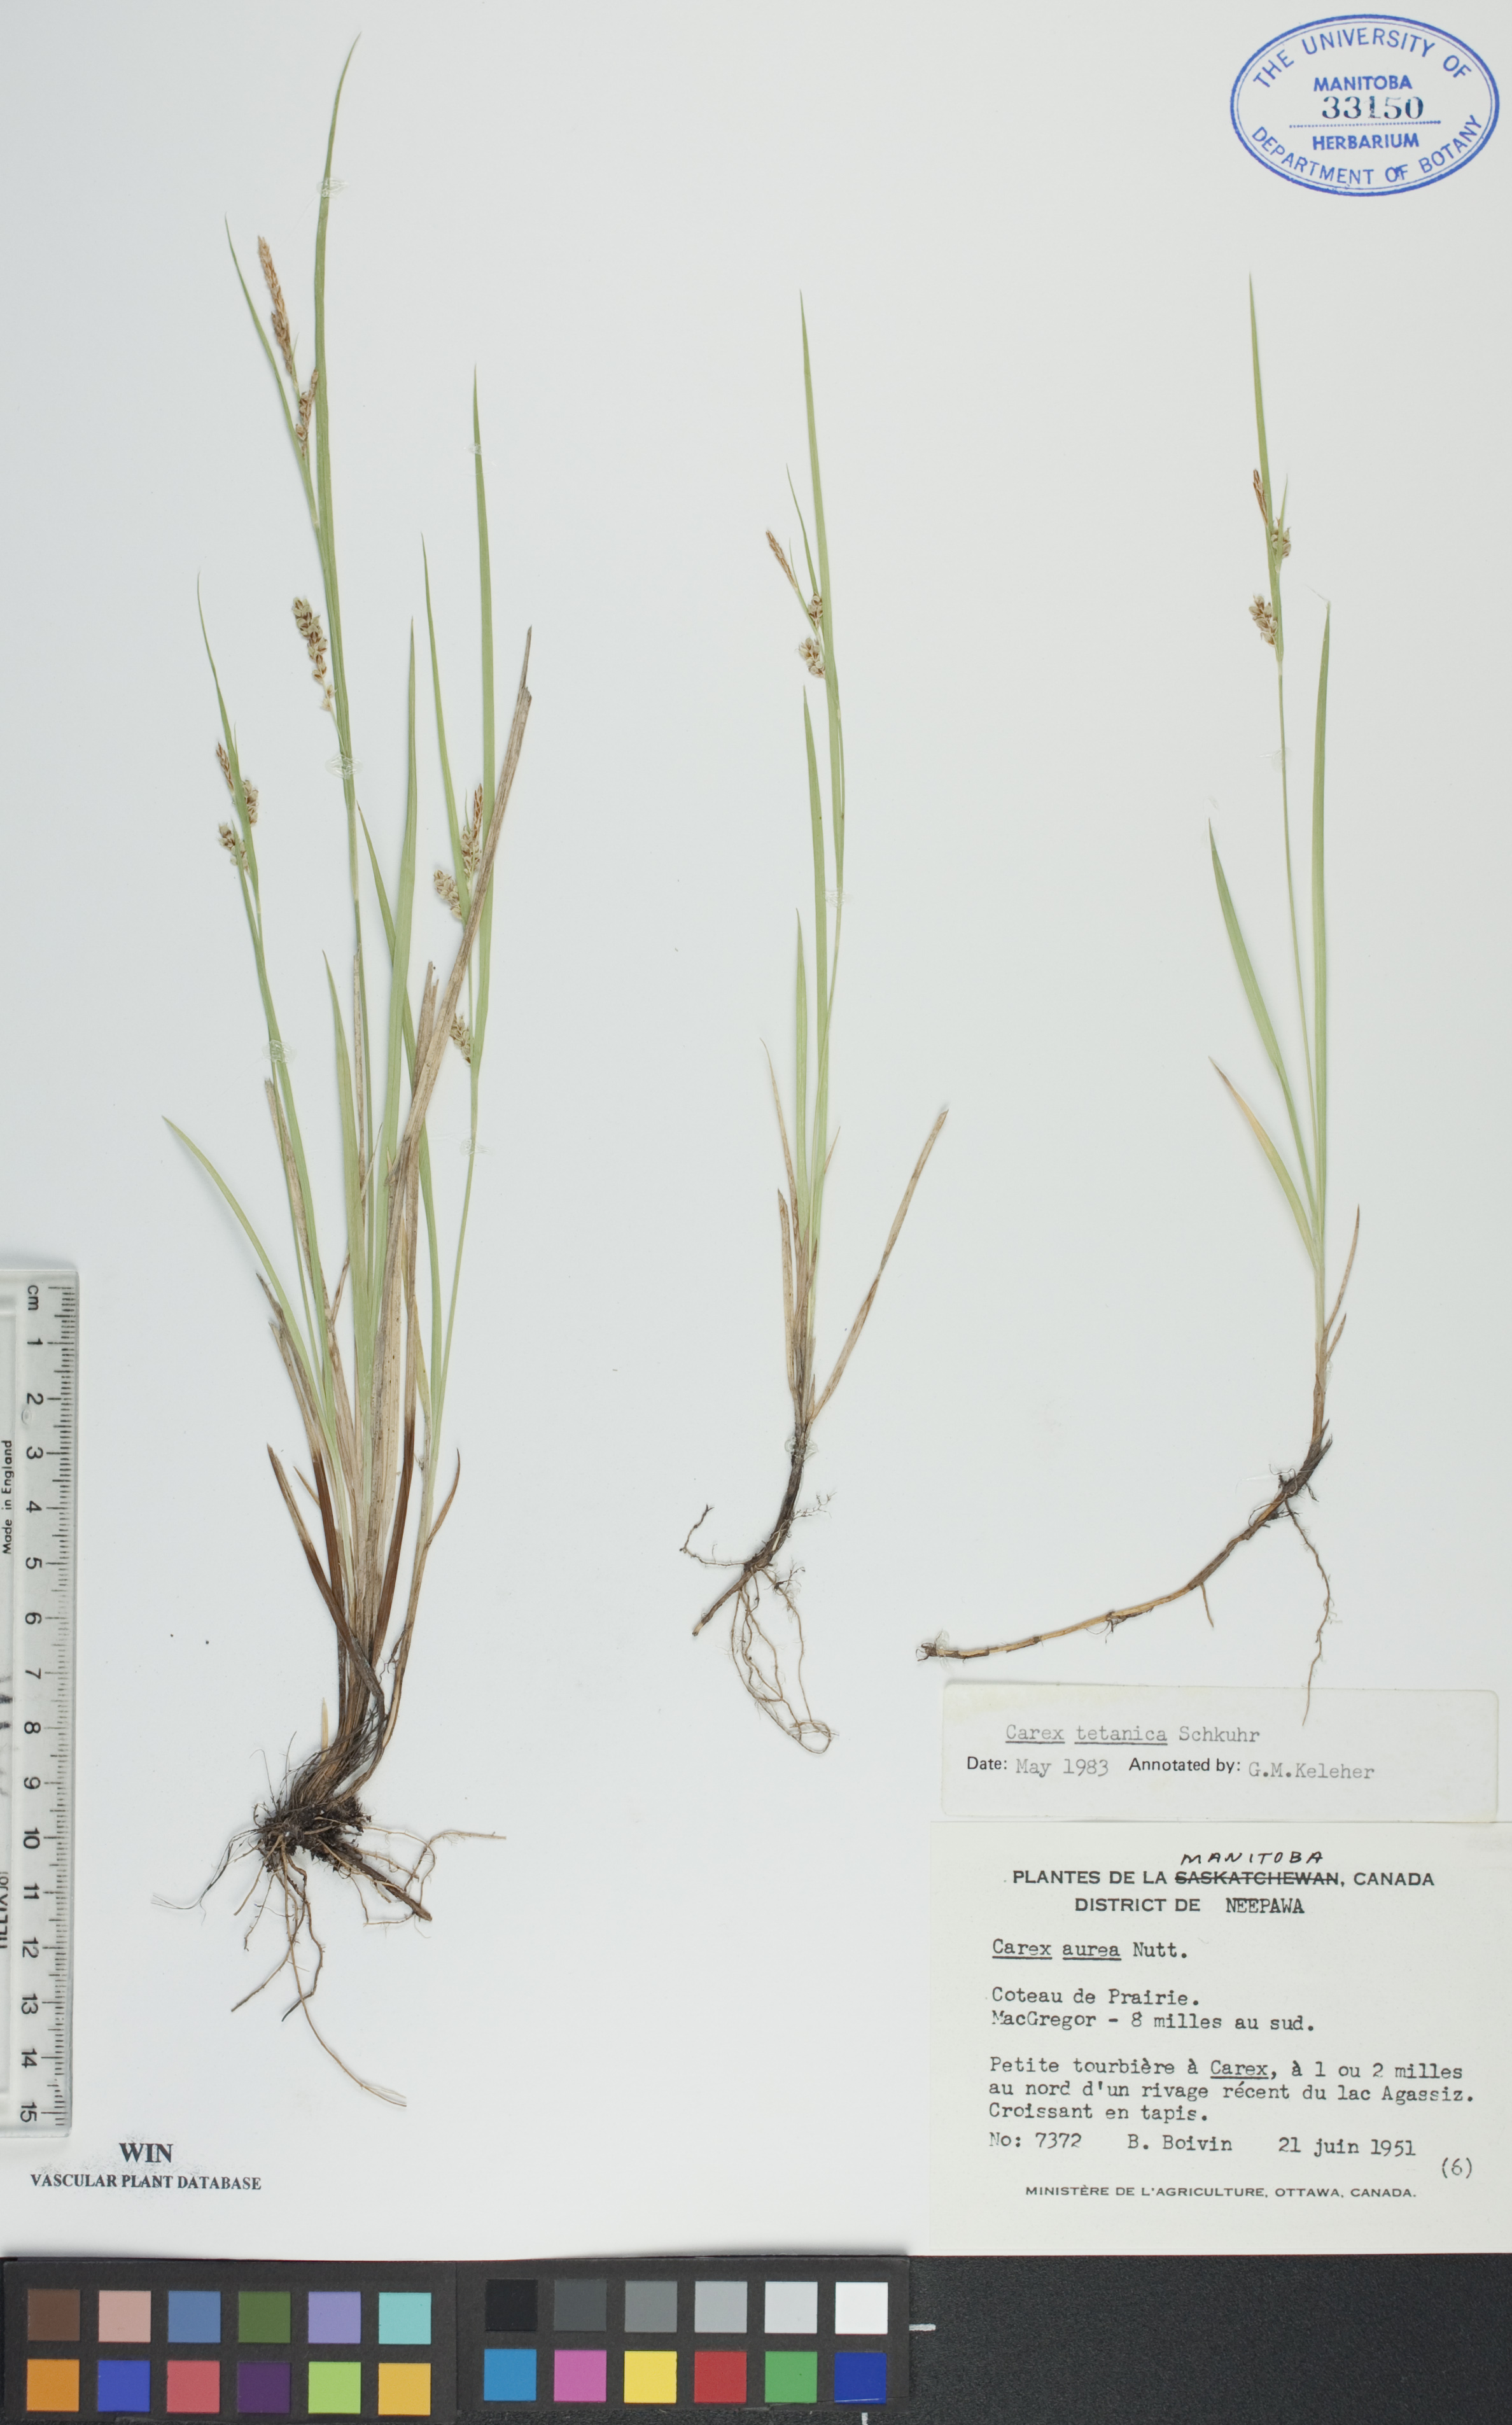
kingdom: Plantae
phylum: Tracheophyta
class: Liliopsida
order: Poales
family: Cyperaceae
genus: Carex
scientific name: Carex tetanica
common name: Rigid sedge
